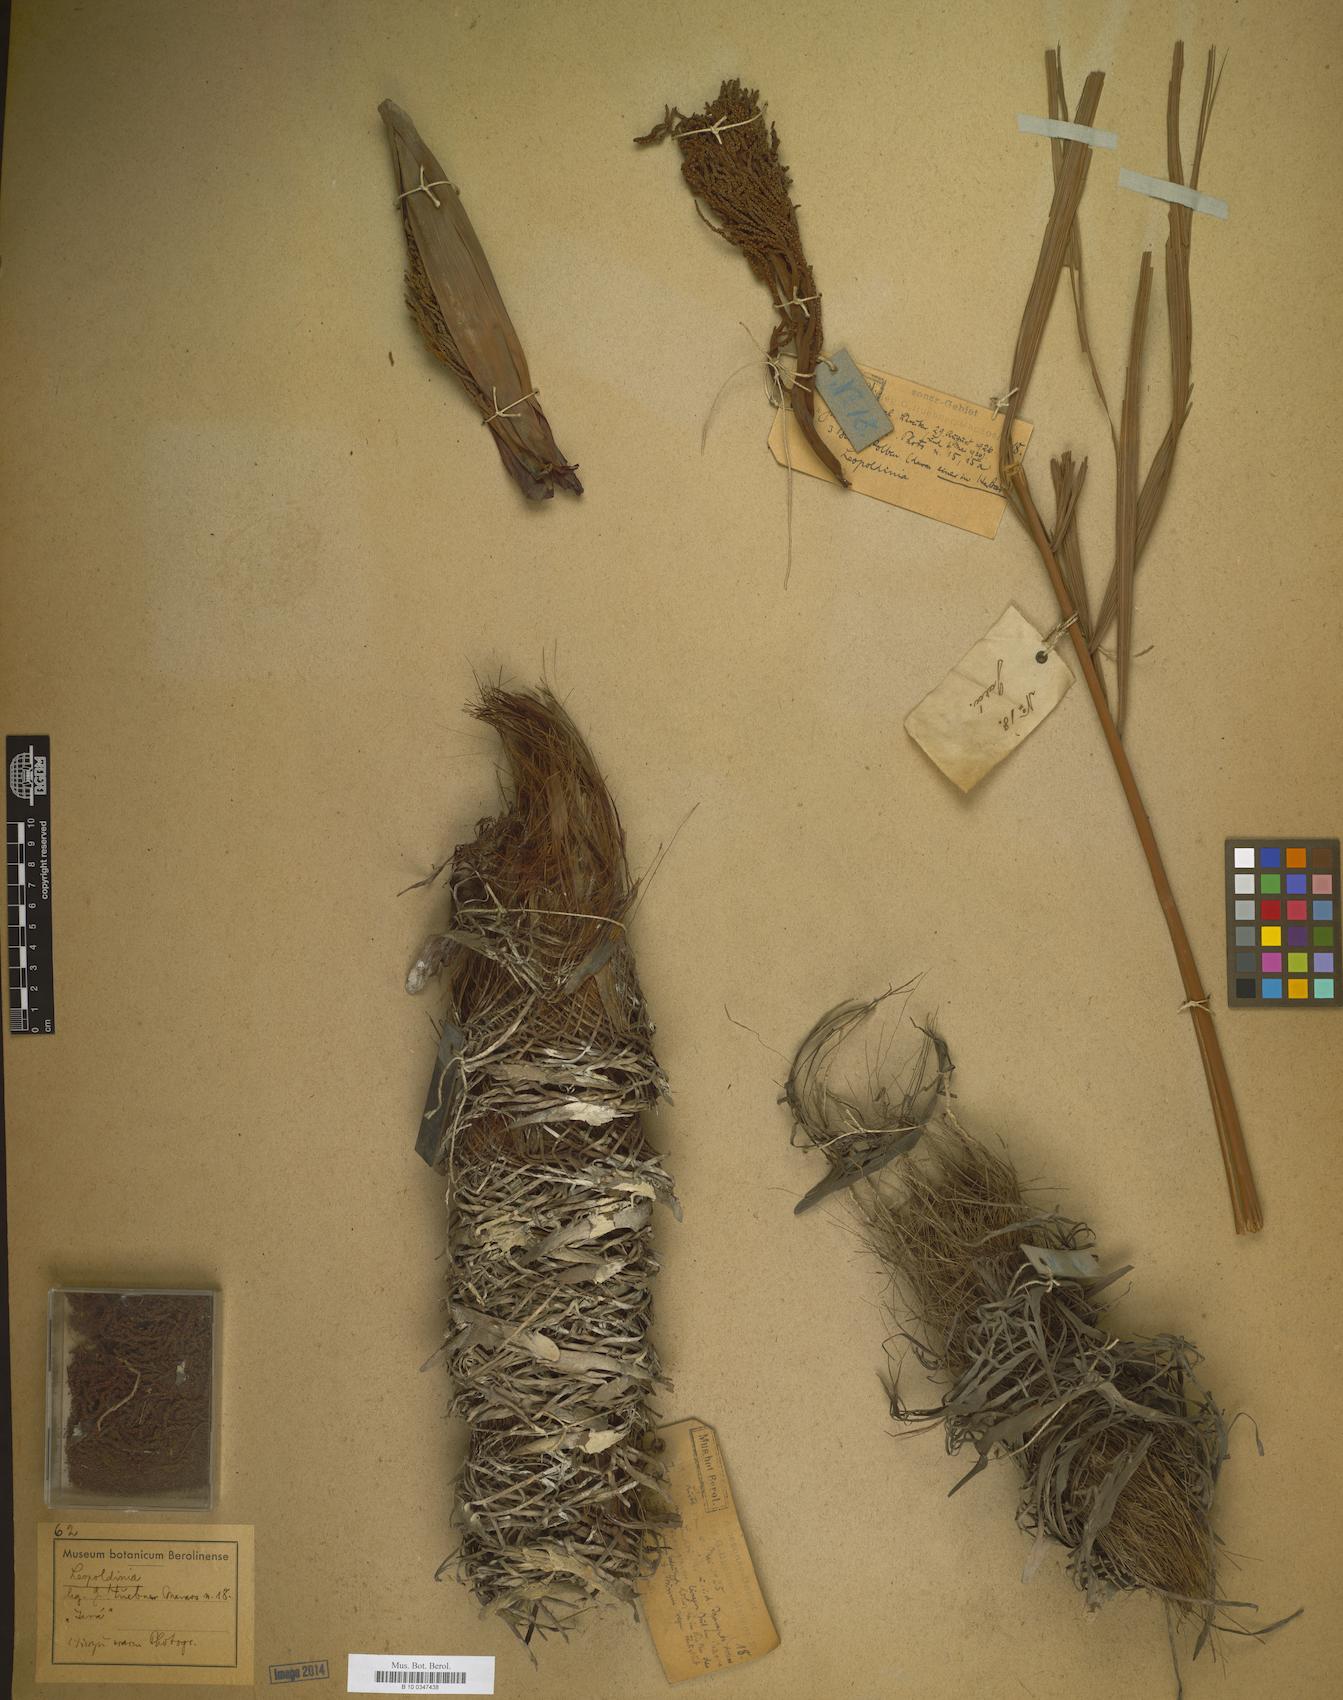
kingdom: Plantae
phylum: Tracheophyta
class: Liliopsida
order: Arecales
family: Arecaceae
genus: Leopoldinia
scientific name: Leopoldinia
